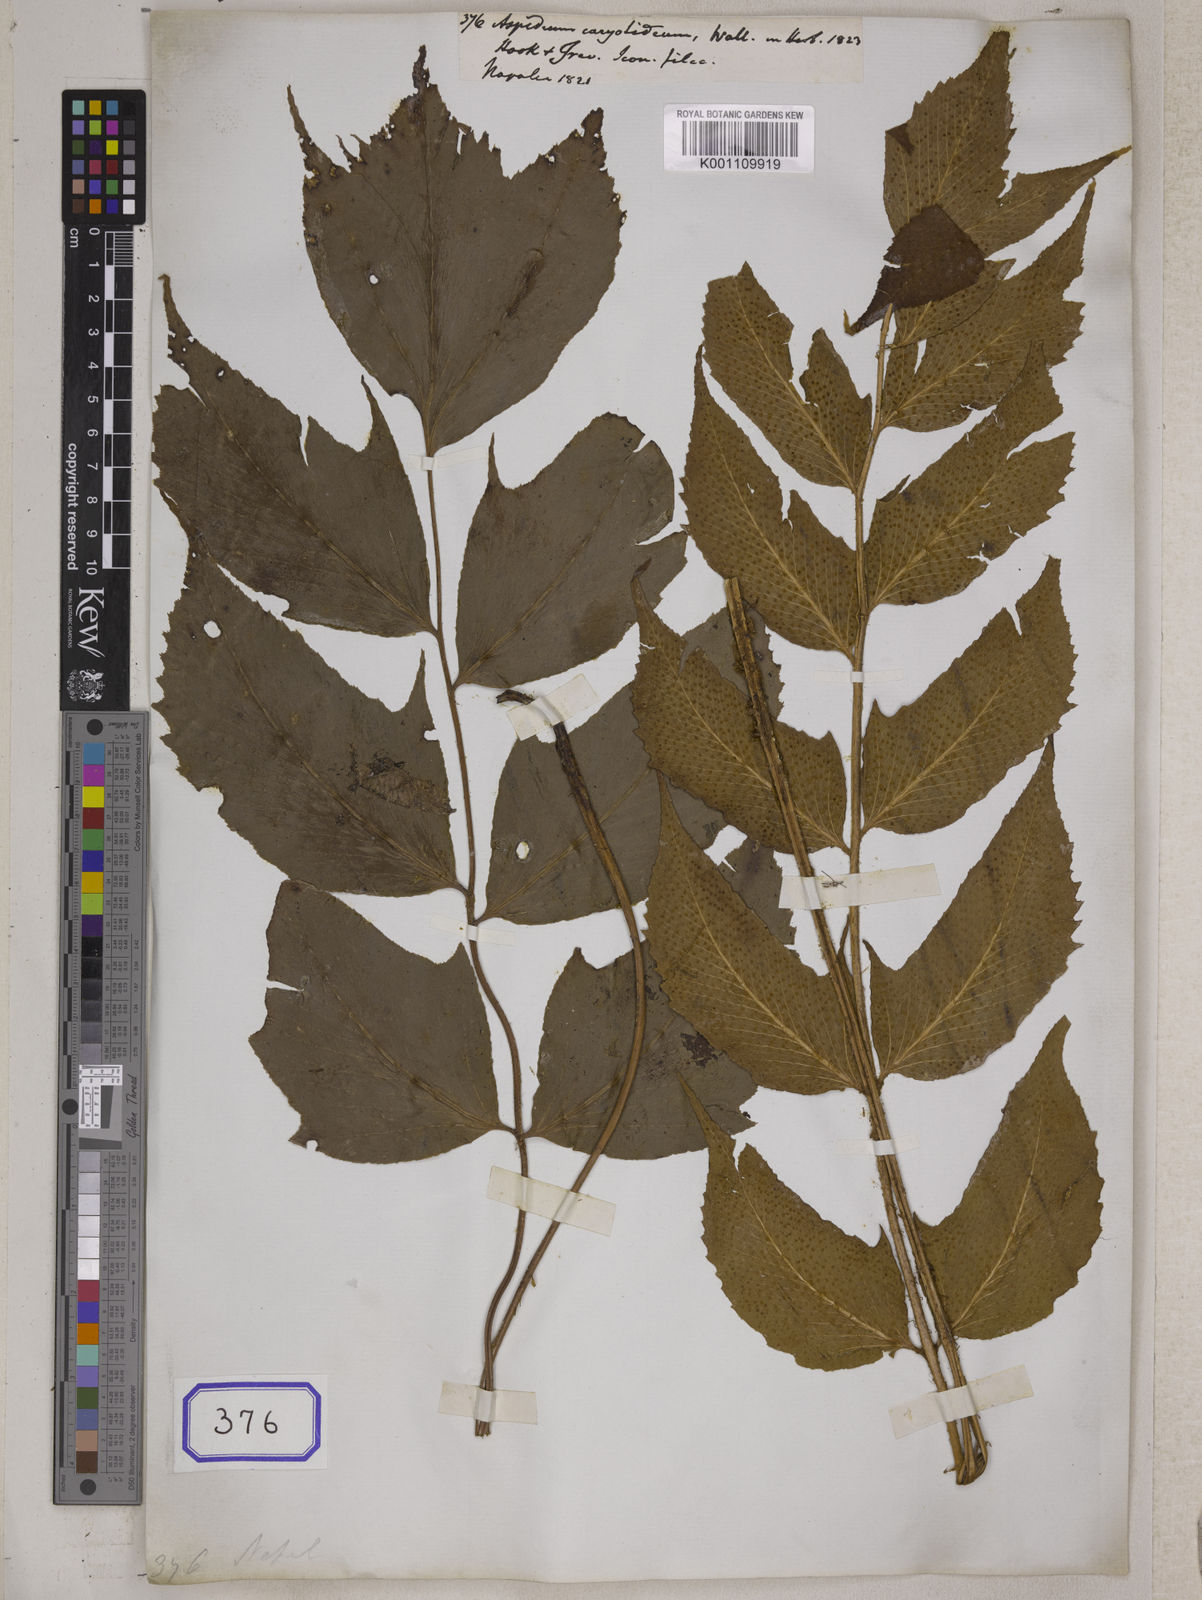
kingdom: Plantae
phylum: Tracheophyta
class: Polypodiopsida
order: Polypodiales
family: Tectariaceae
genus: Tectaria
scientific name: Tectaria Aspidium spec
